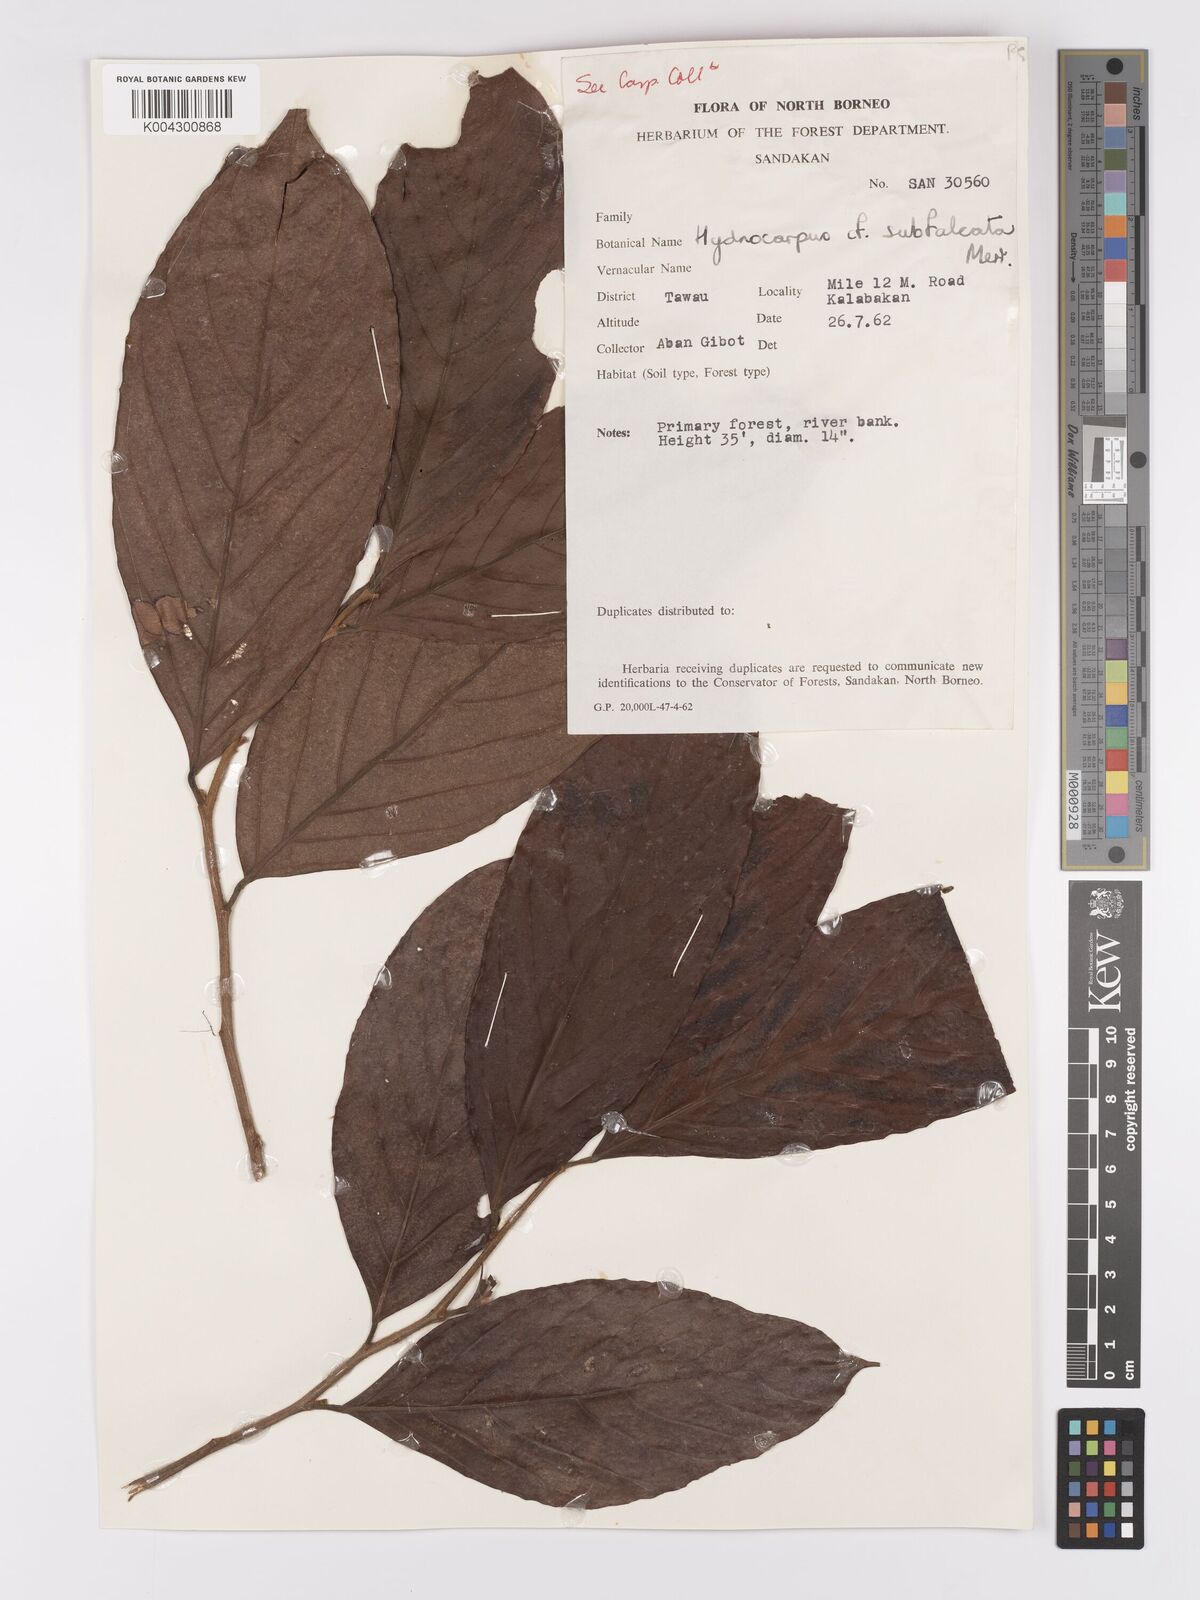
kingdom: Plantae
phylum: Tracheophyta
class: Magnoliopsida
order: Malpighiales
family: Achariaceae
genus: Hydnocarpus
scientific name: Hydnocarpus subfalcatus
